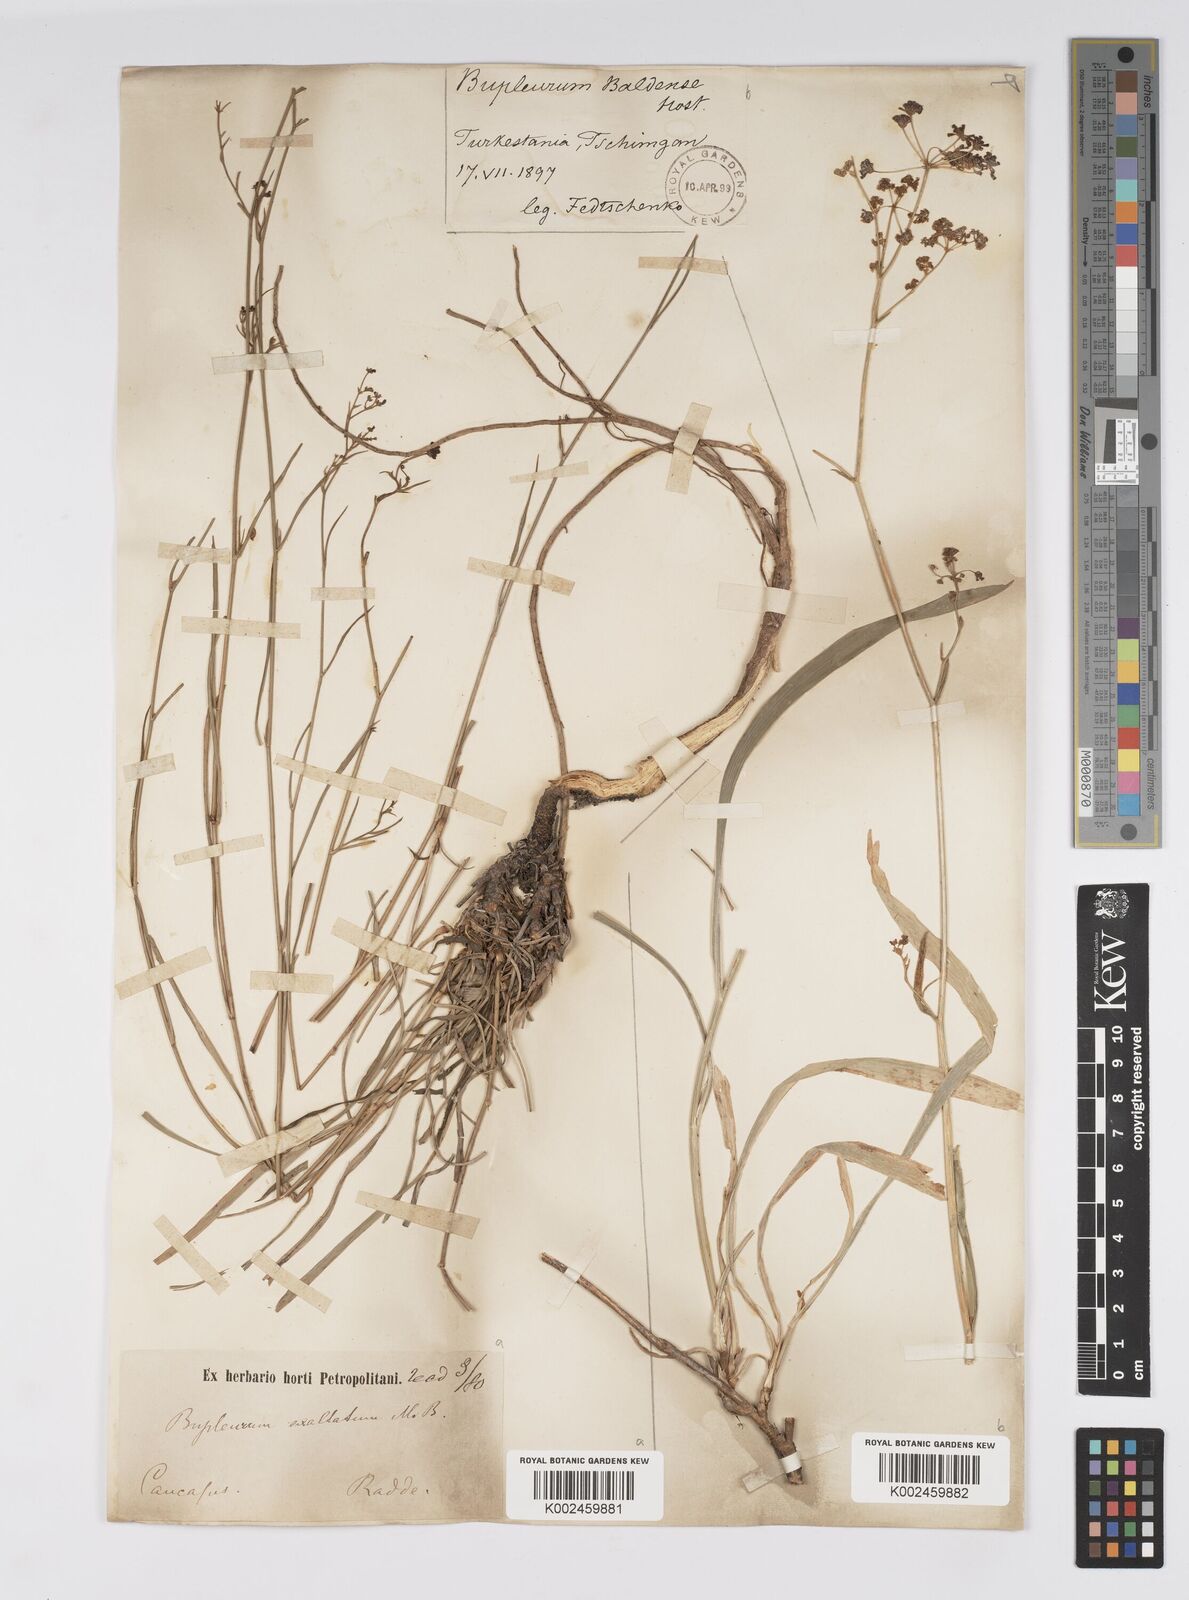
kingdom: Plantae
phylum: Tracheophyta
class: Magnoliopsida
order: Apiales
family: Apiaceae
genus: Bupleurum
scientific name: Bupleurum falcatum
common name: Sickle-leaved hare's-ear
